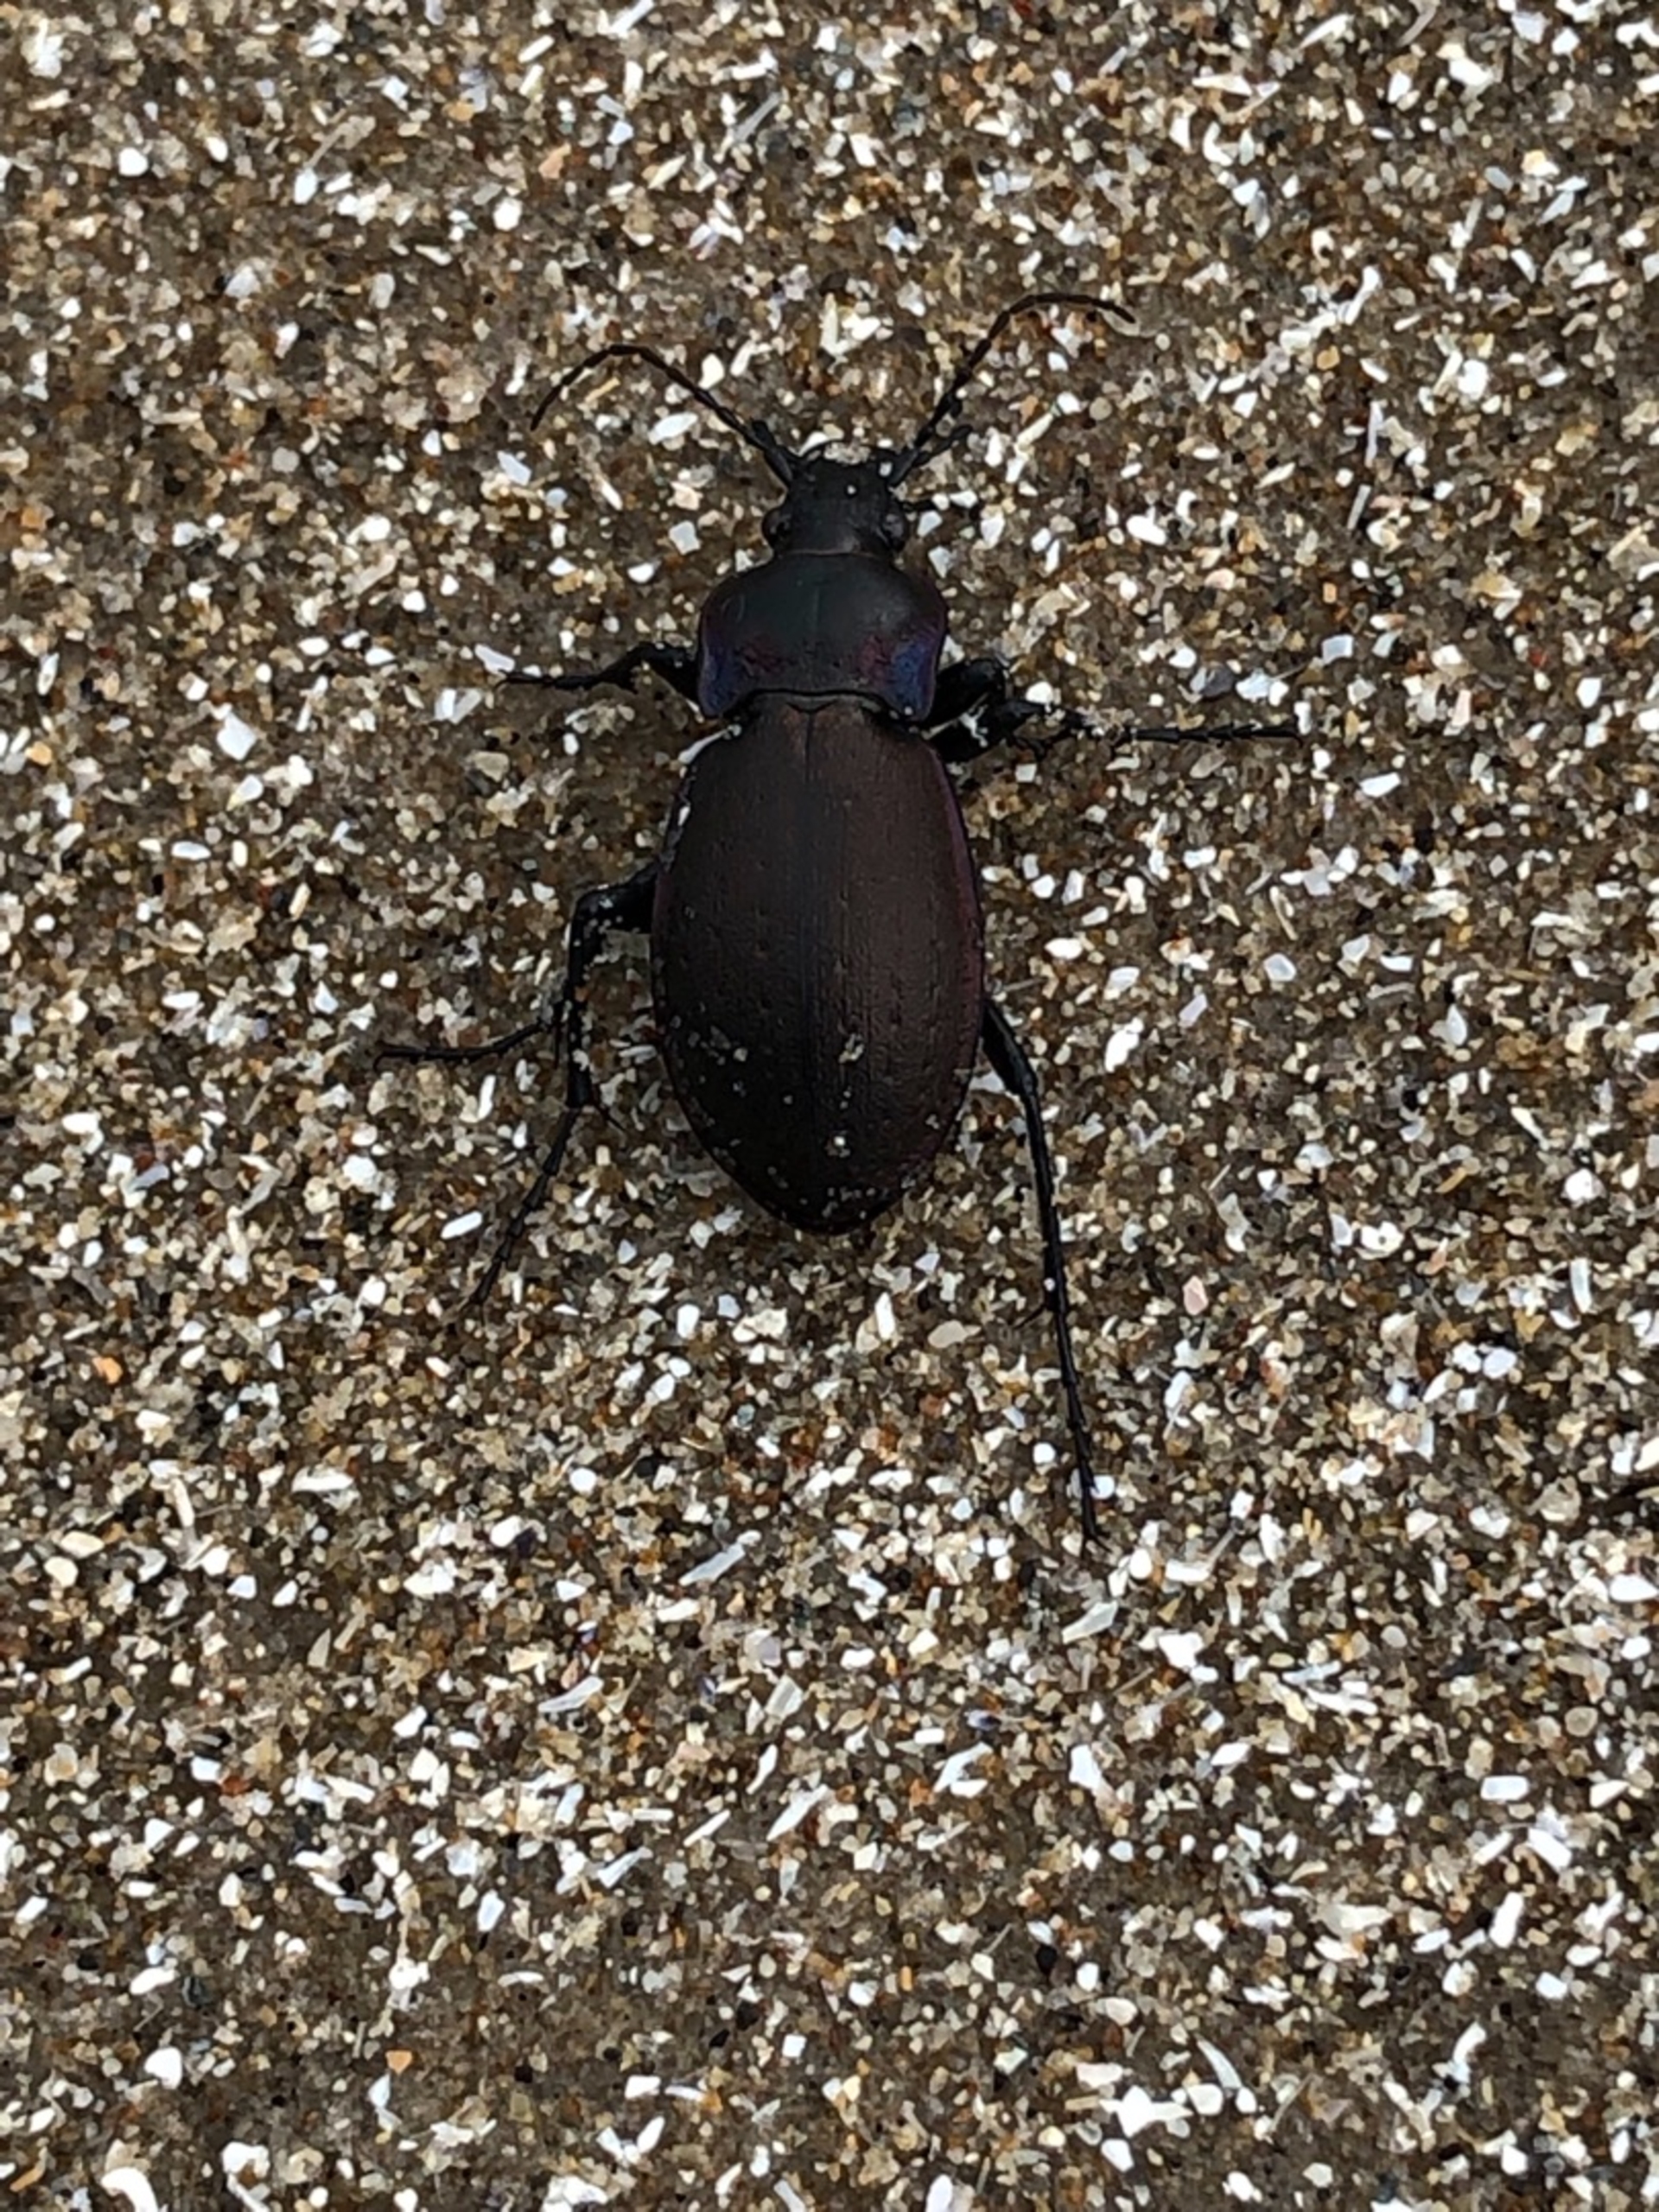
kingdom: Animalia
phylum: Arthropoda
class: Insecta
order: Coleoptera
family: Carabidae
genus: Carabus
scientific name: Carabus nemoralis
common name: Kratløber
